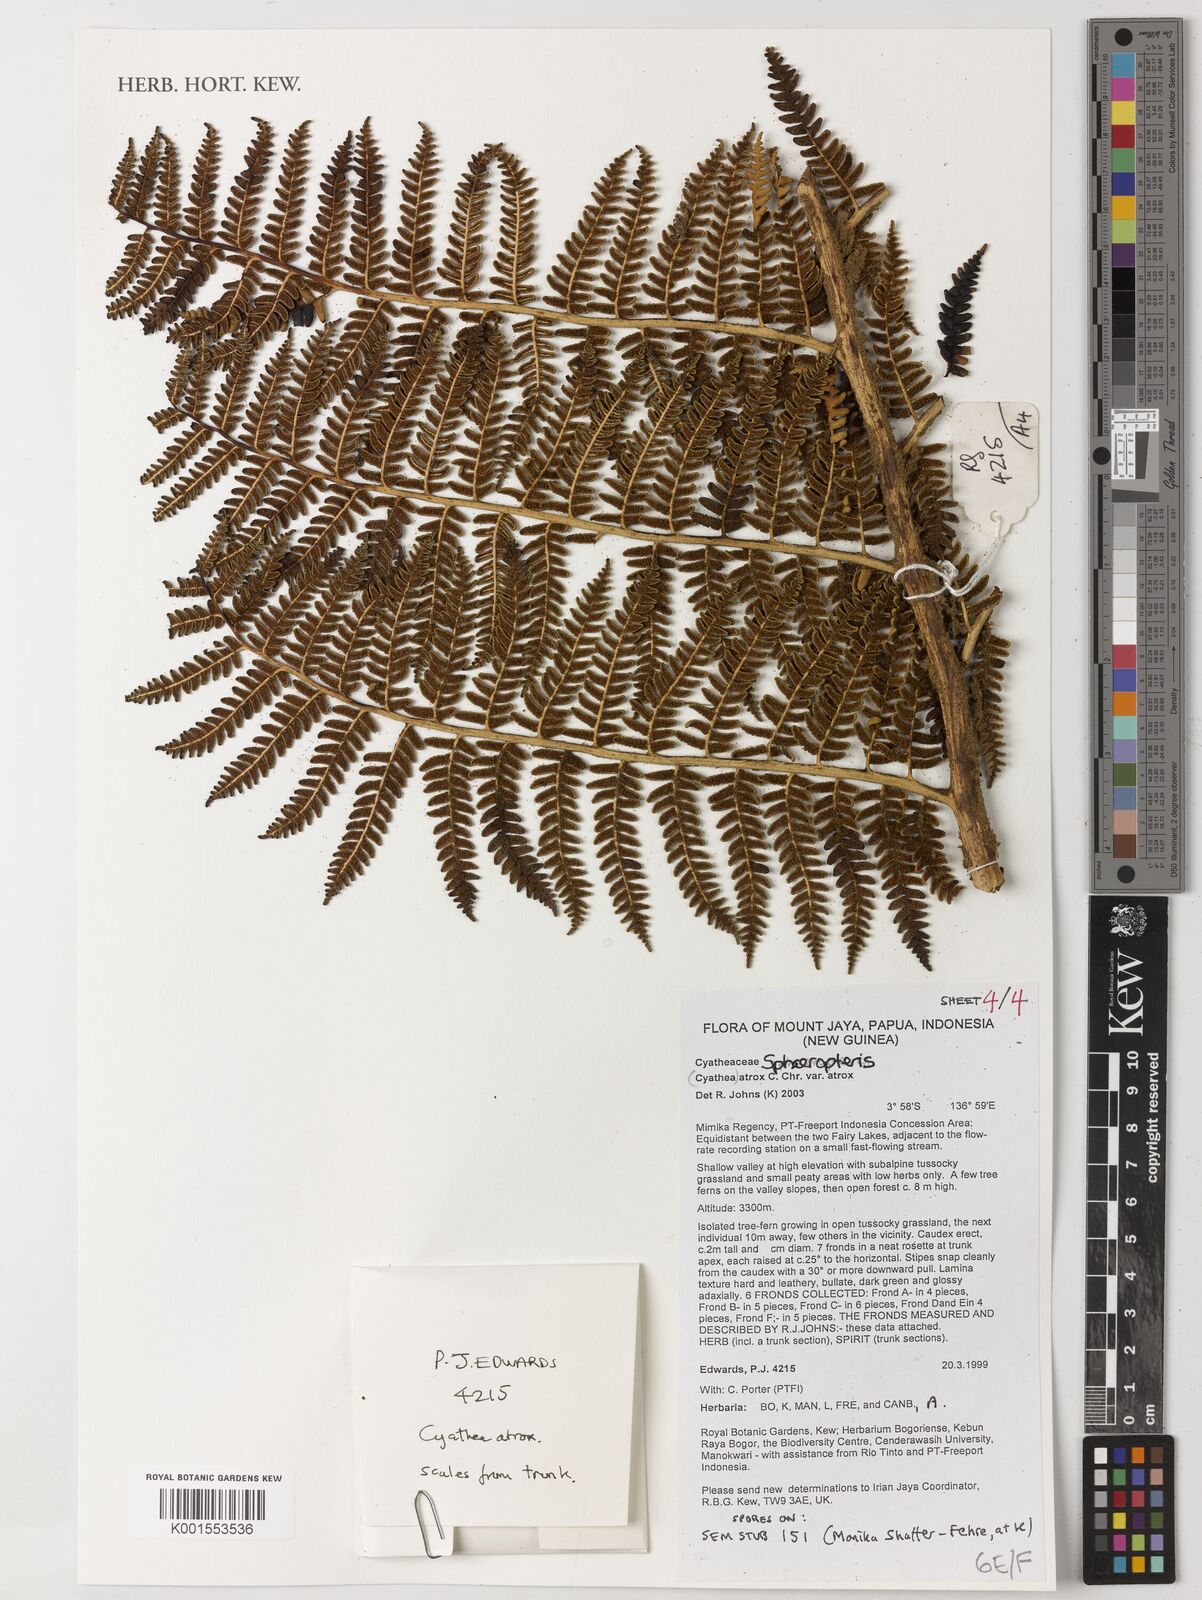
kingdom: Plantae
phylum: Tracheophyta
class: Polypodiopsida
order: Cyatheales
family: Cyatheaceae
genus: Sphaeropteris
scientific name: Sphaeropteris atrox
